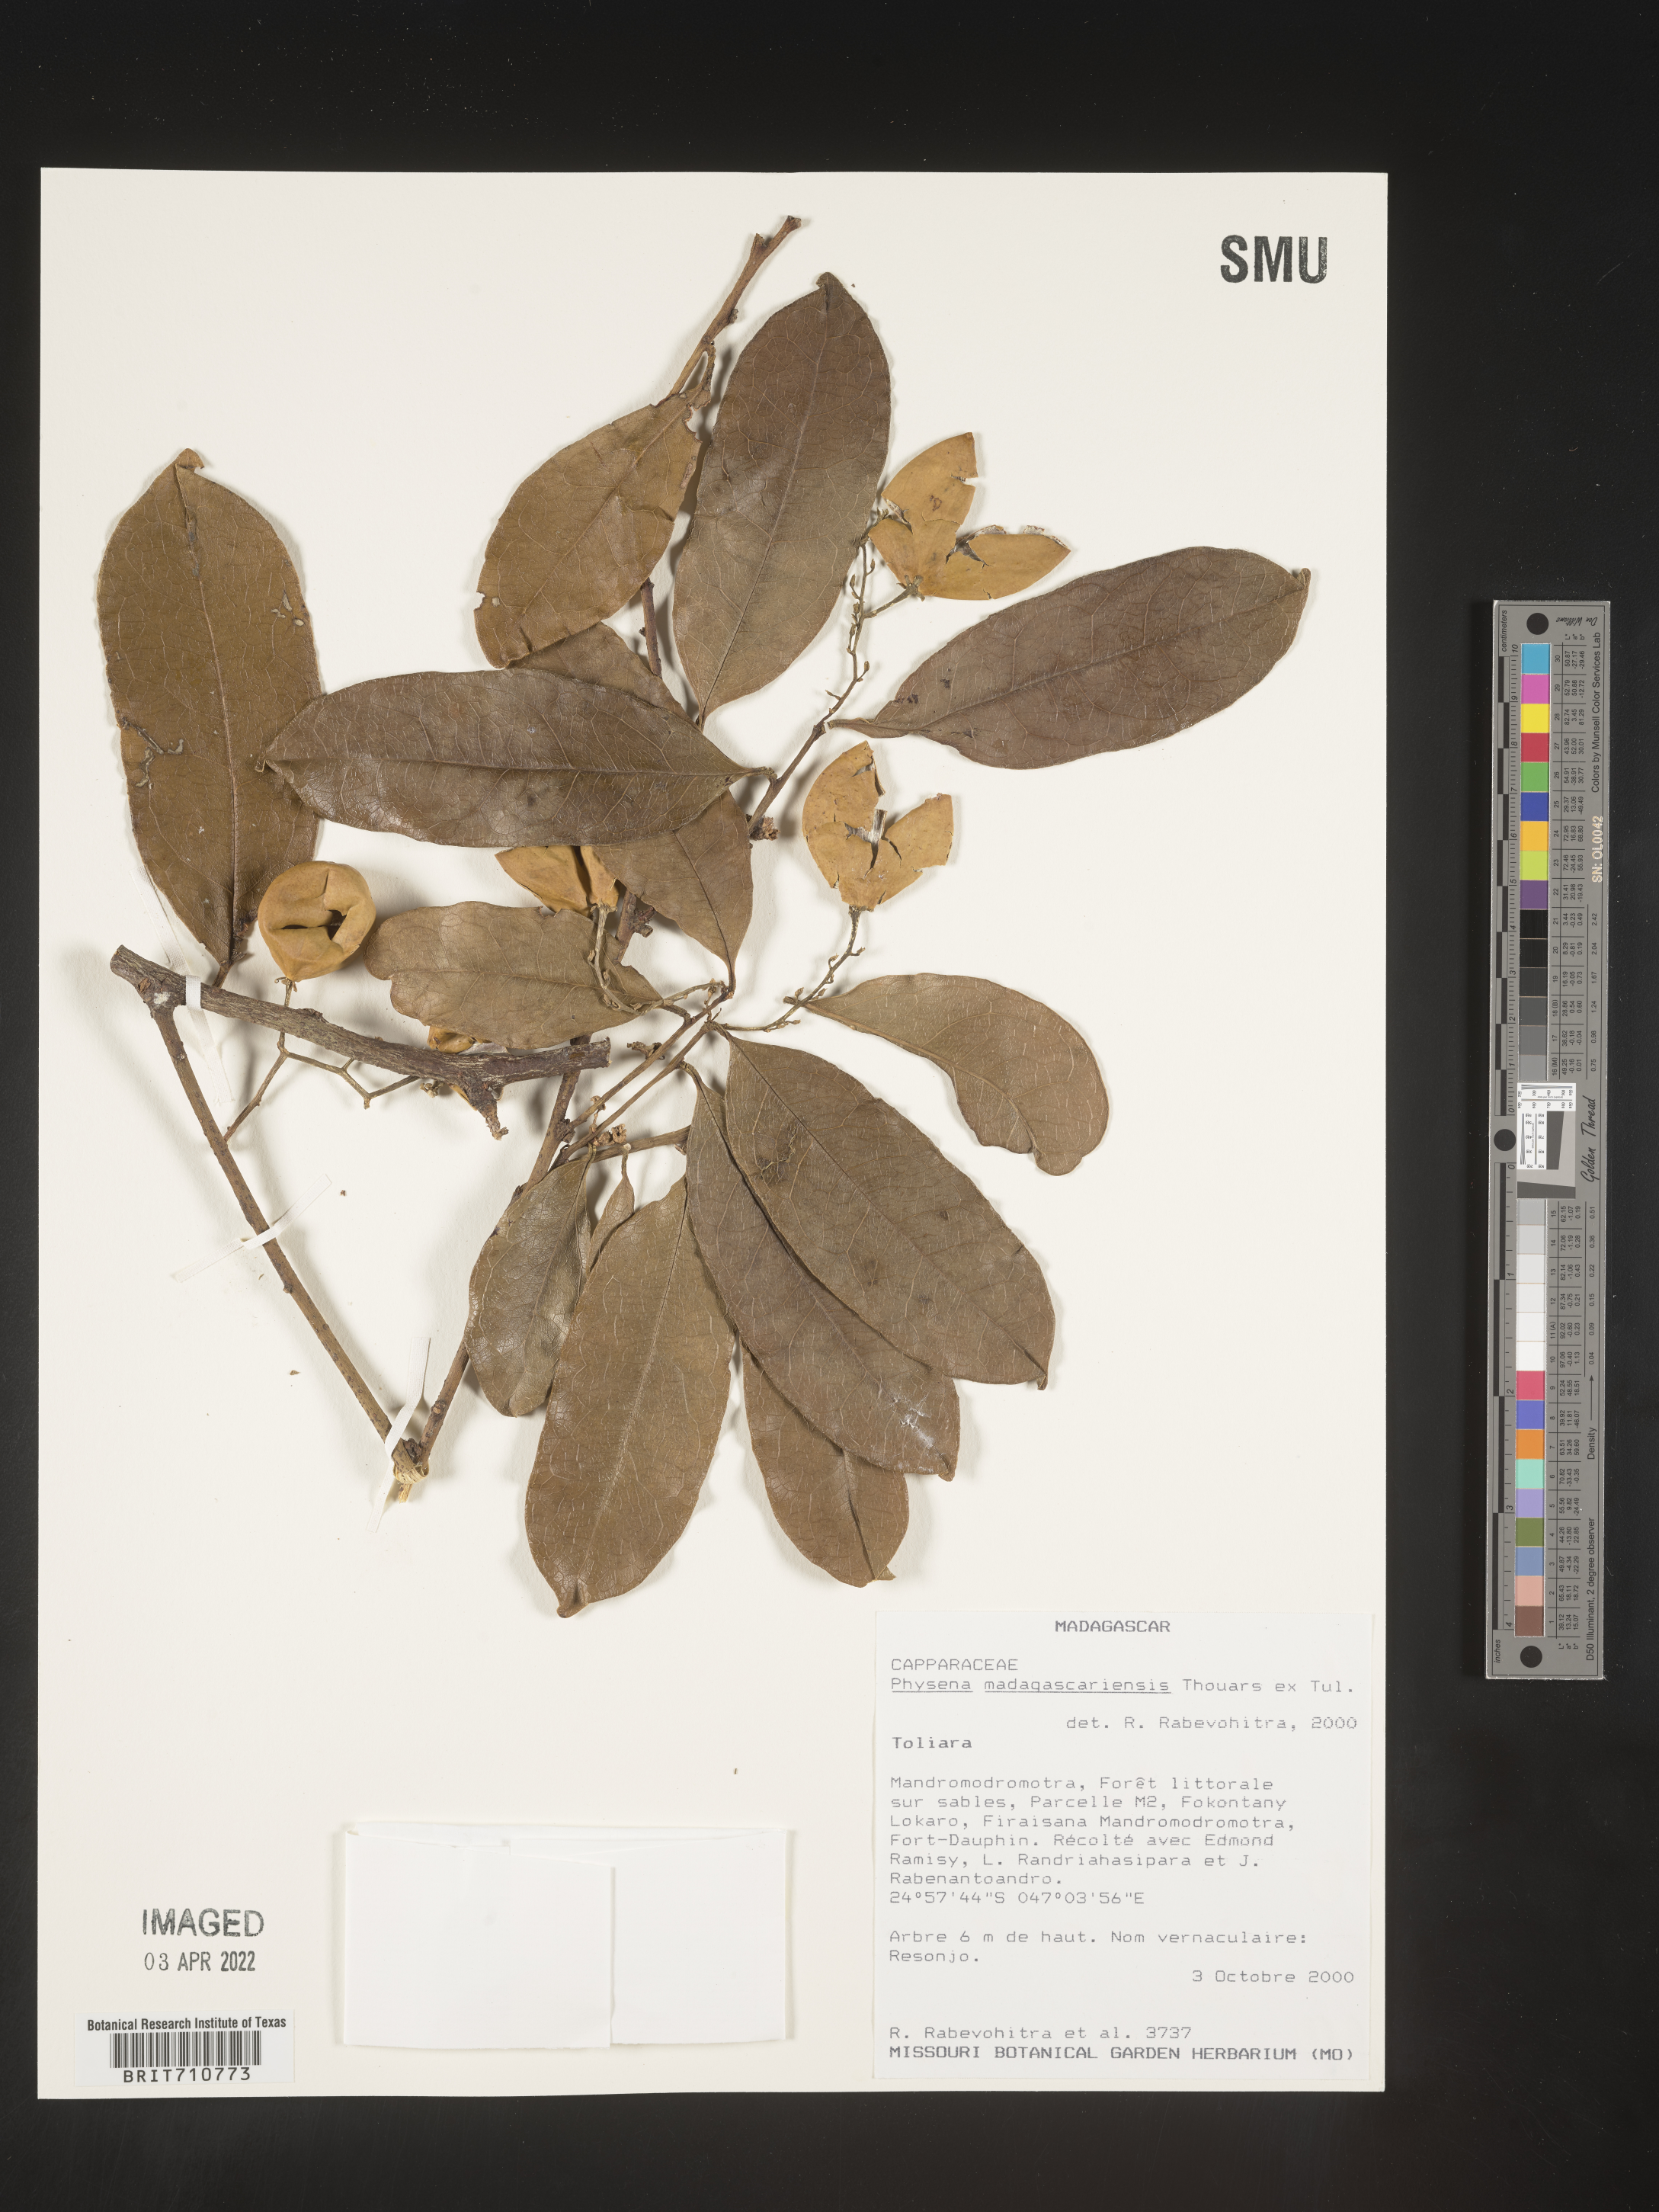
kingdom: Plantae
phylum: Tracheophyta
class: Magnoliopsida
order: Caryophyllales
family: Physenaceae
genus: Physena
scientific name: Physena
